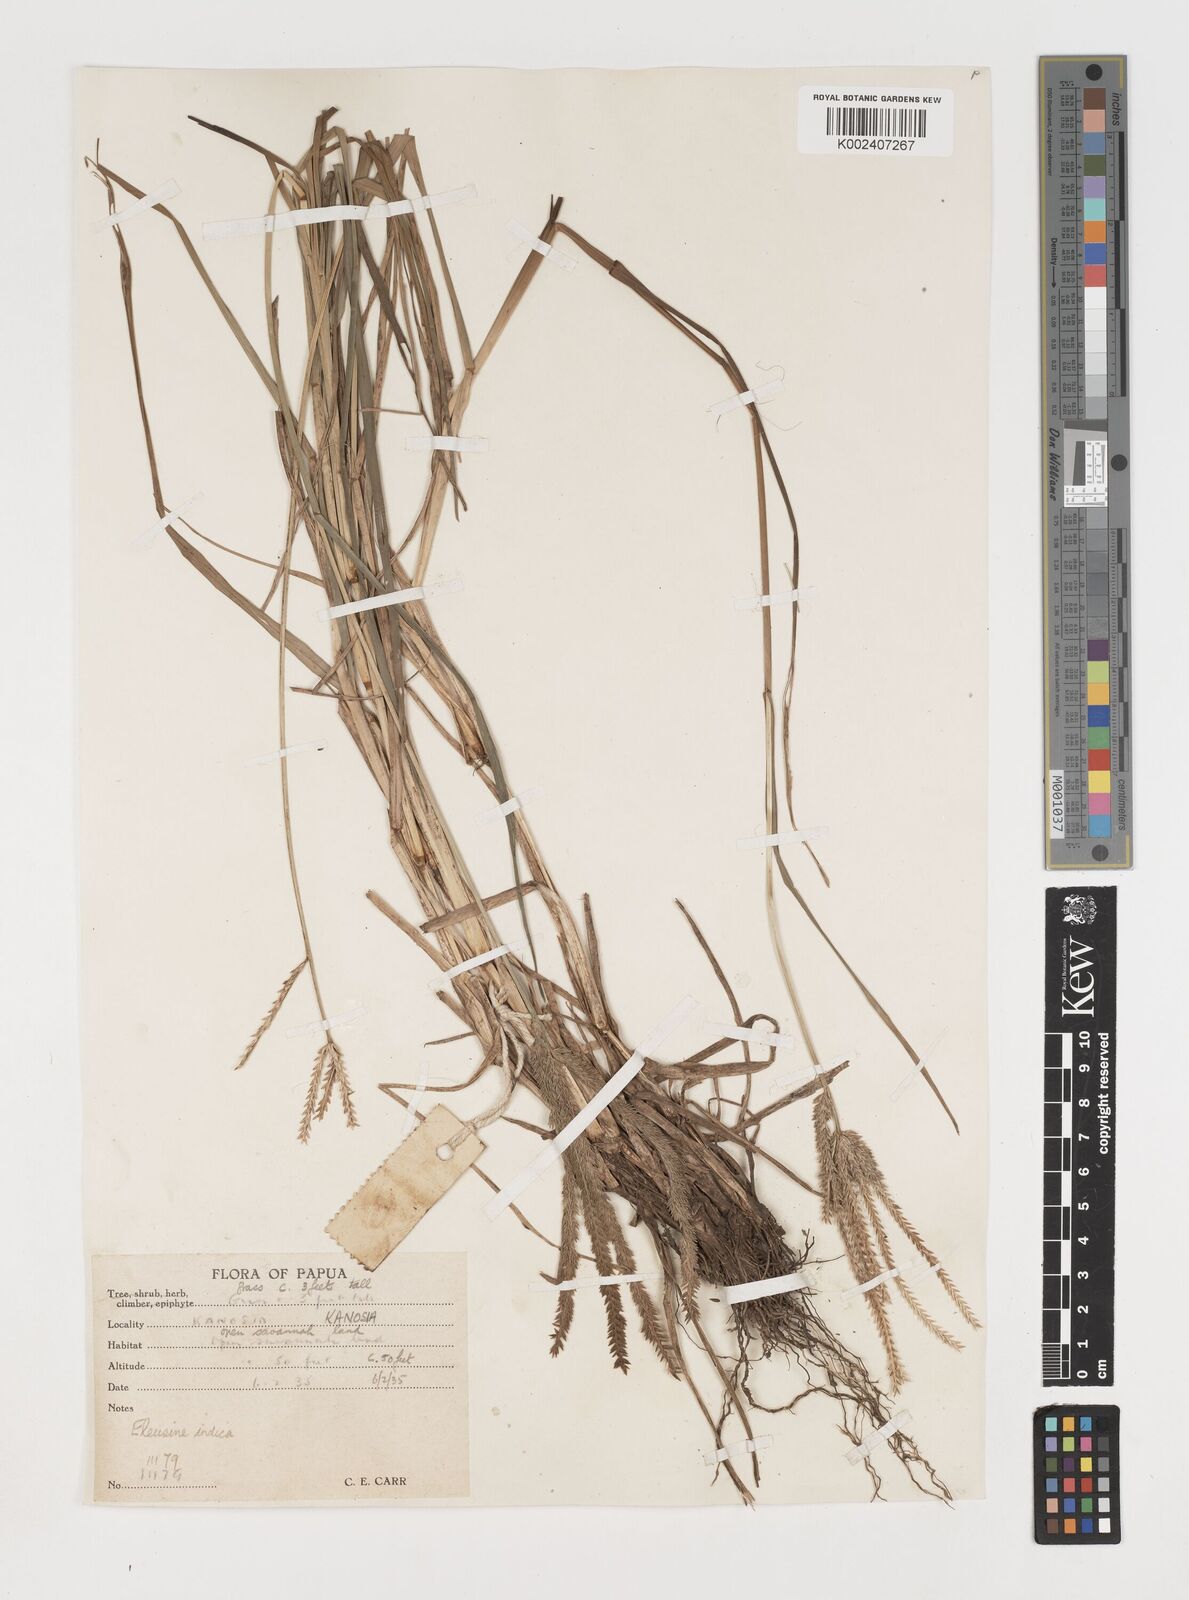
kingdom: Plantae
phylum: Tracheophyta
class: Liliopsida
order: Poales
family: Poaceae
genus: Eleusine
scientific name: Eleusine indica
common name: Yard-grass
